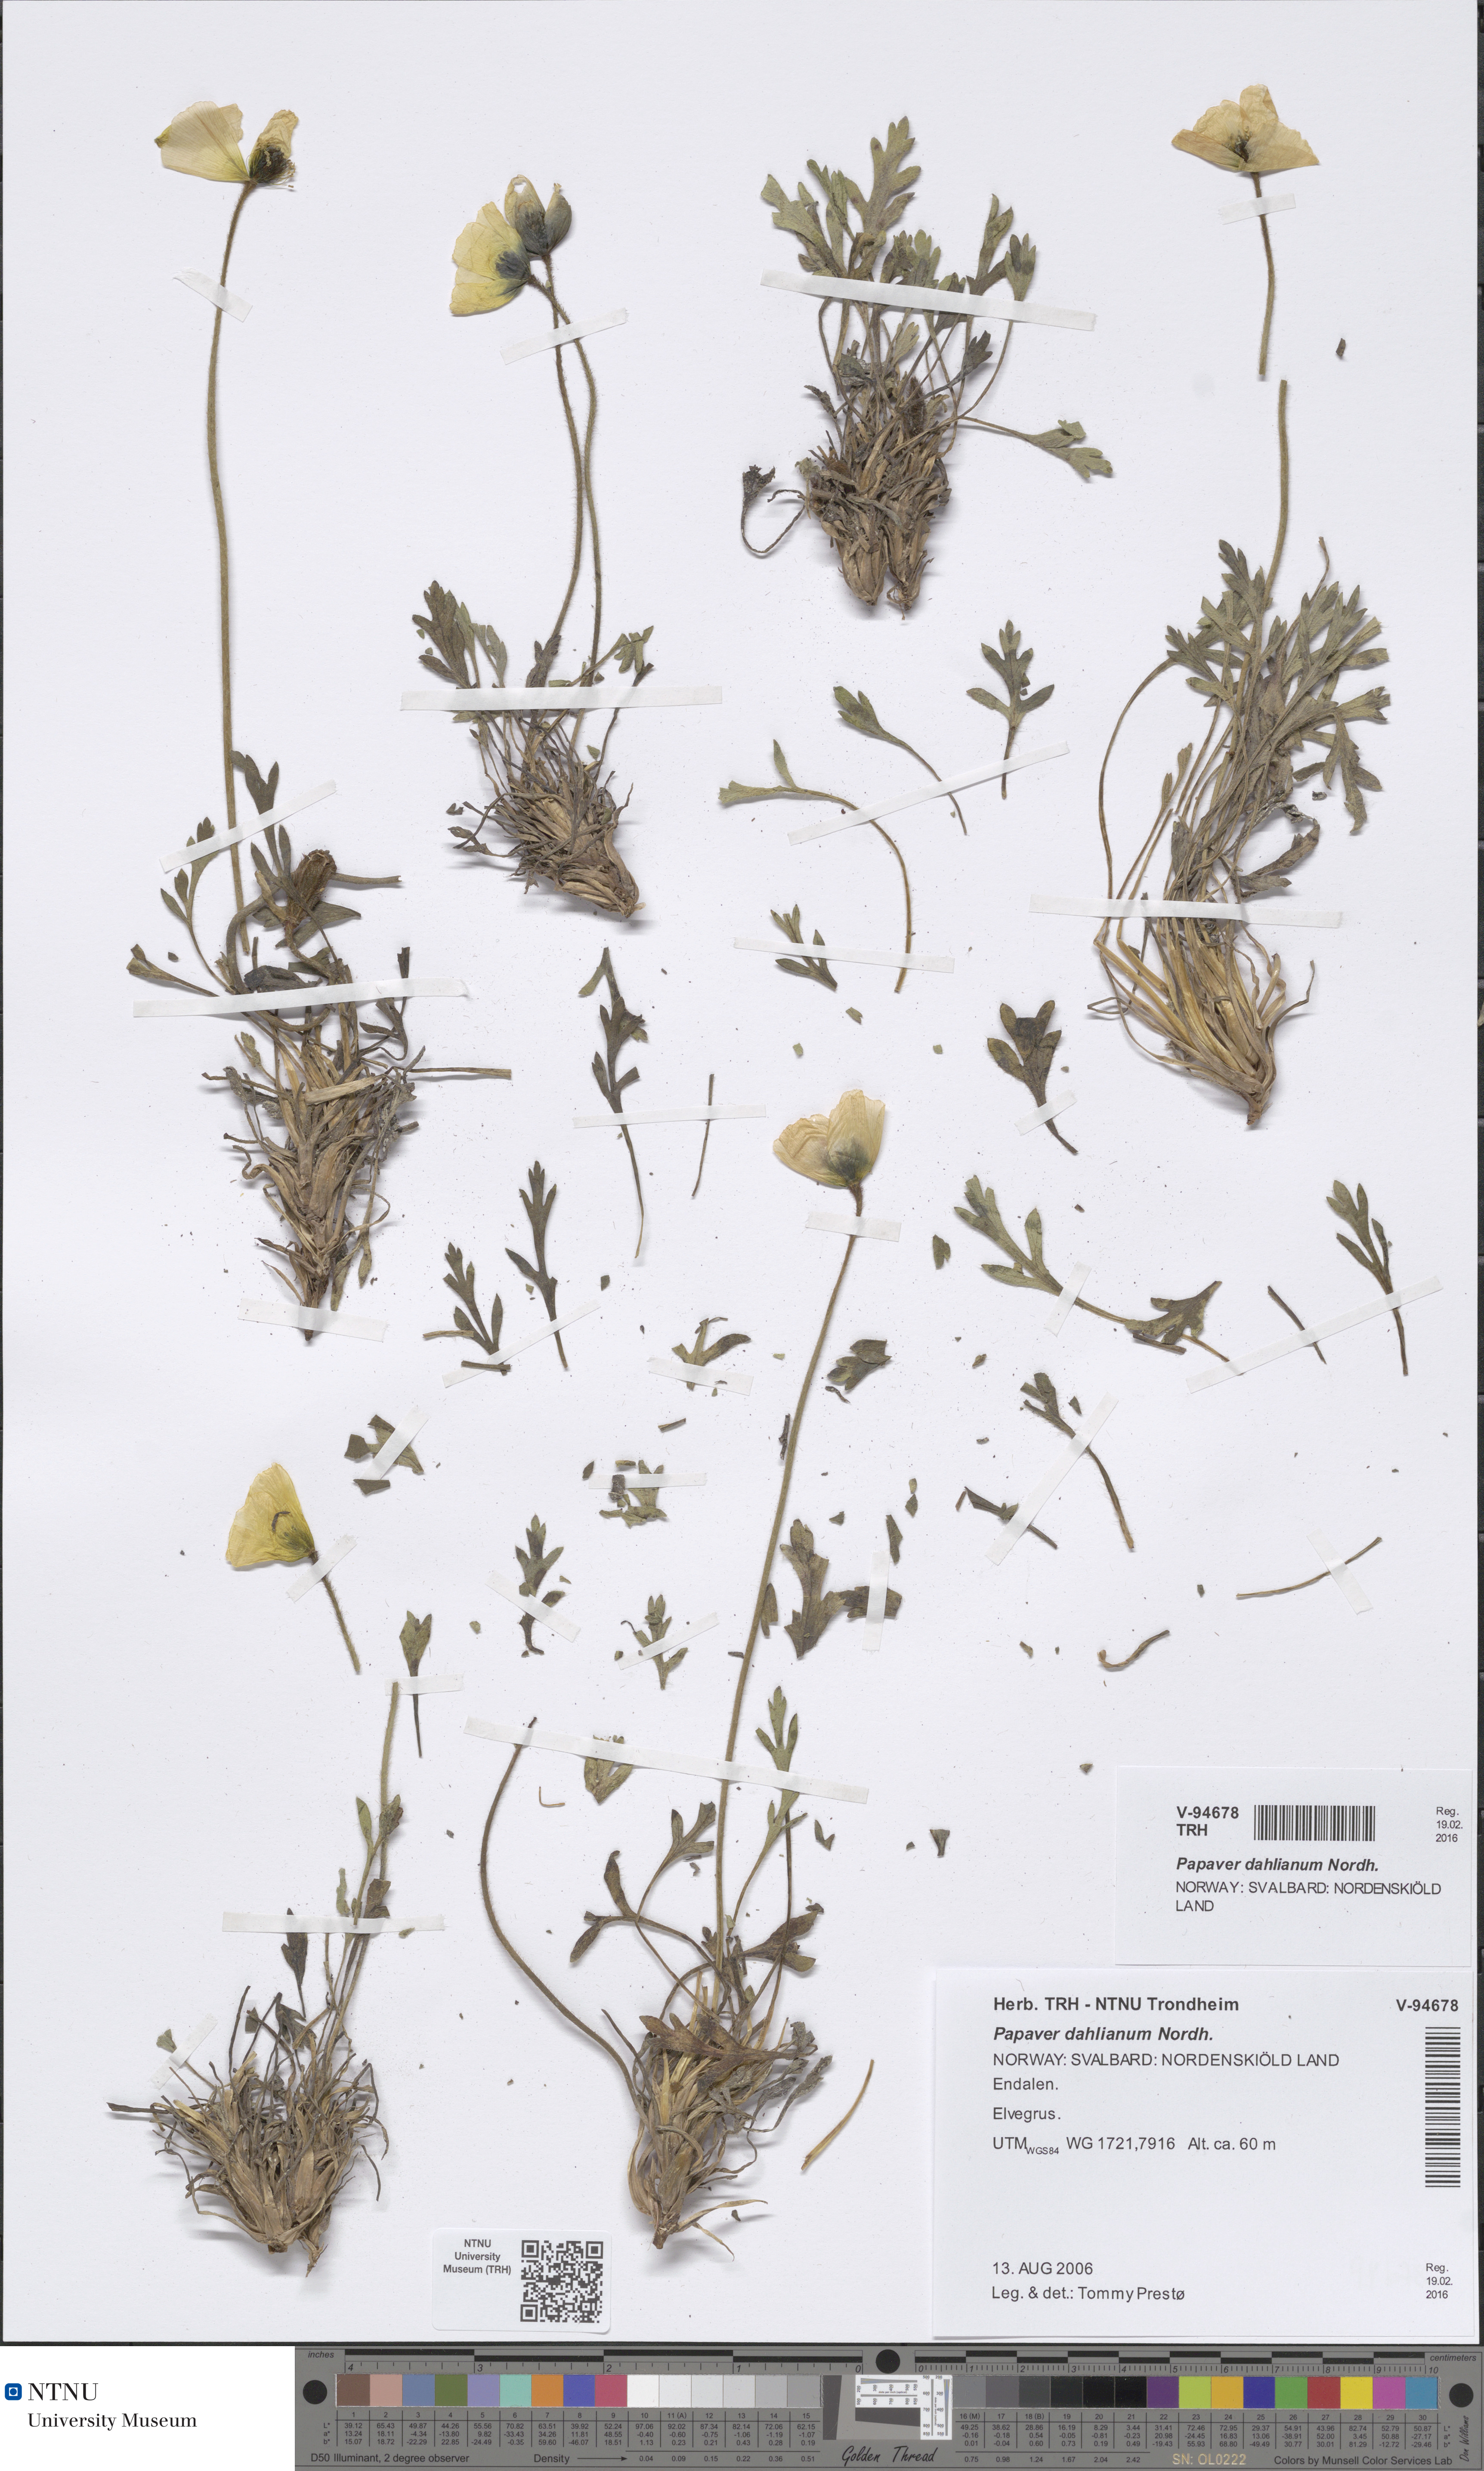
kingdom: Plantae
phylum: Tracheophyta
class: Magnoliopsida
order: Ranunculales
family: Papaveraceae
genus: Papaver
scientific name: Papaver radicatum
